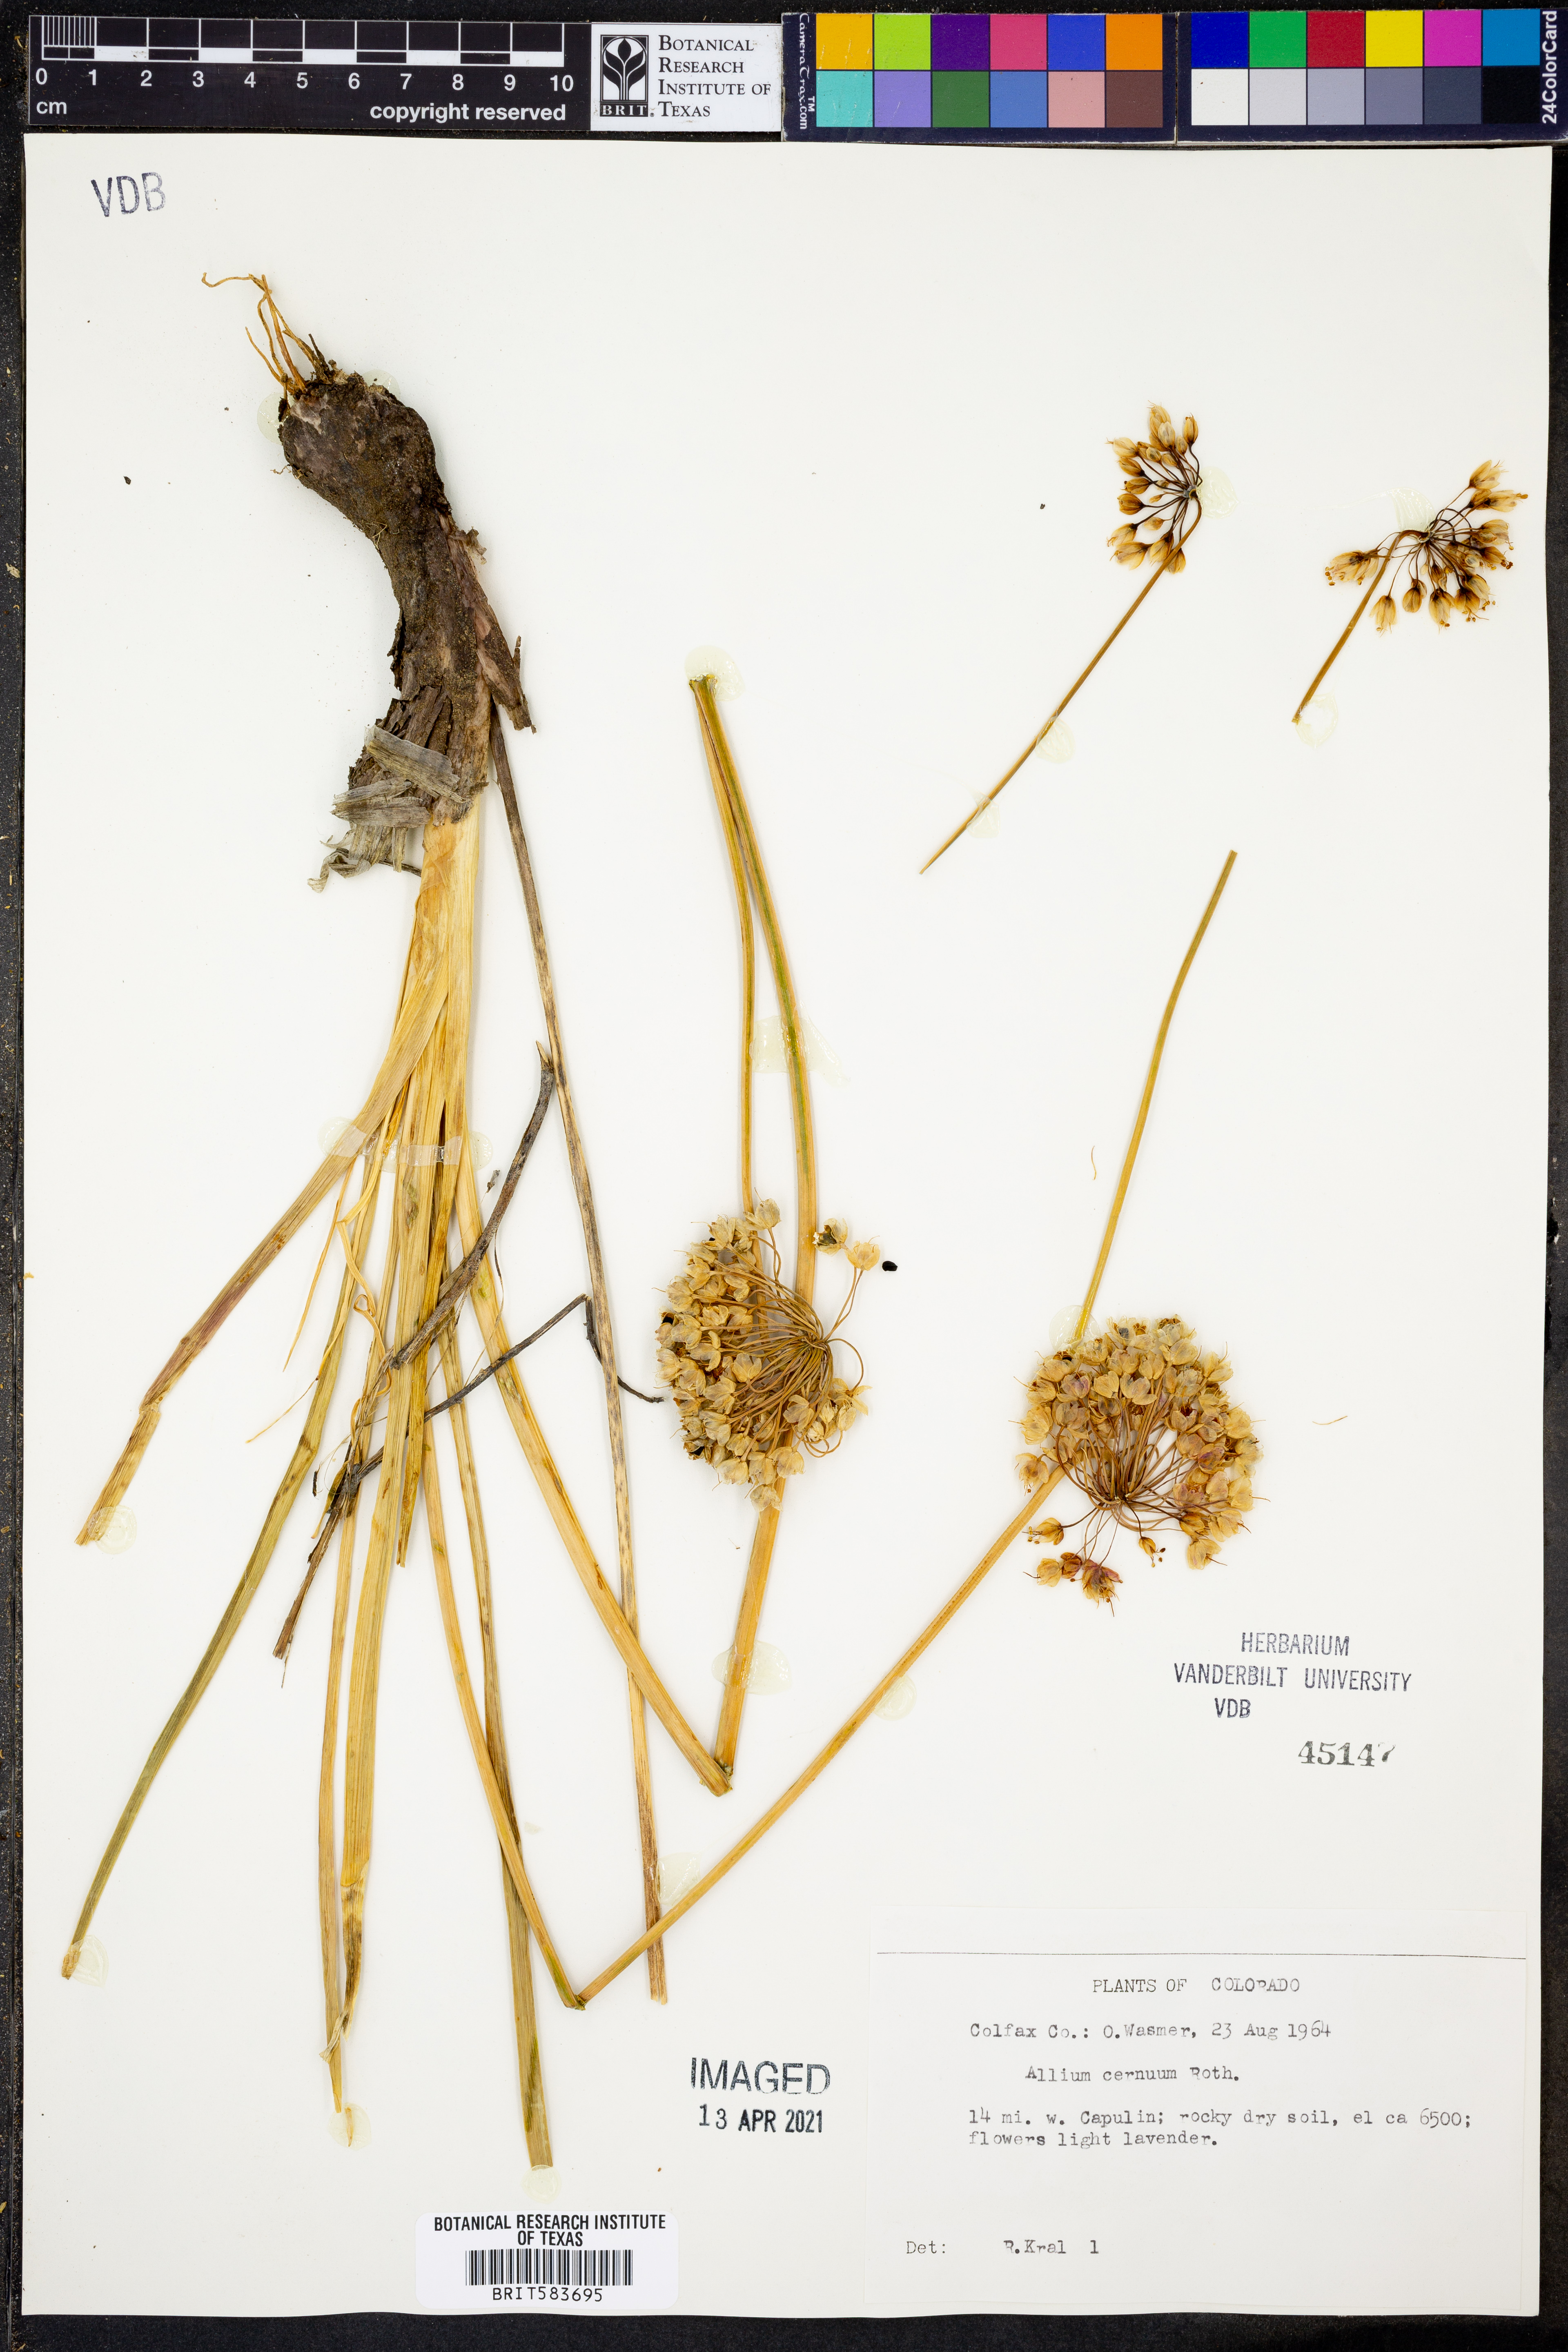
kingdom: Plantae
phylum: Tracheophyta
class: Liliopsida
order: Asparagales
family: Amaryllidaceae
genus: Allium
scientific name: Allium cernuum
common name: Nodding onion
